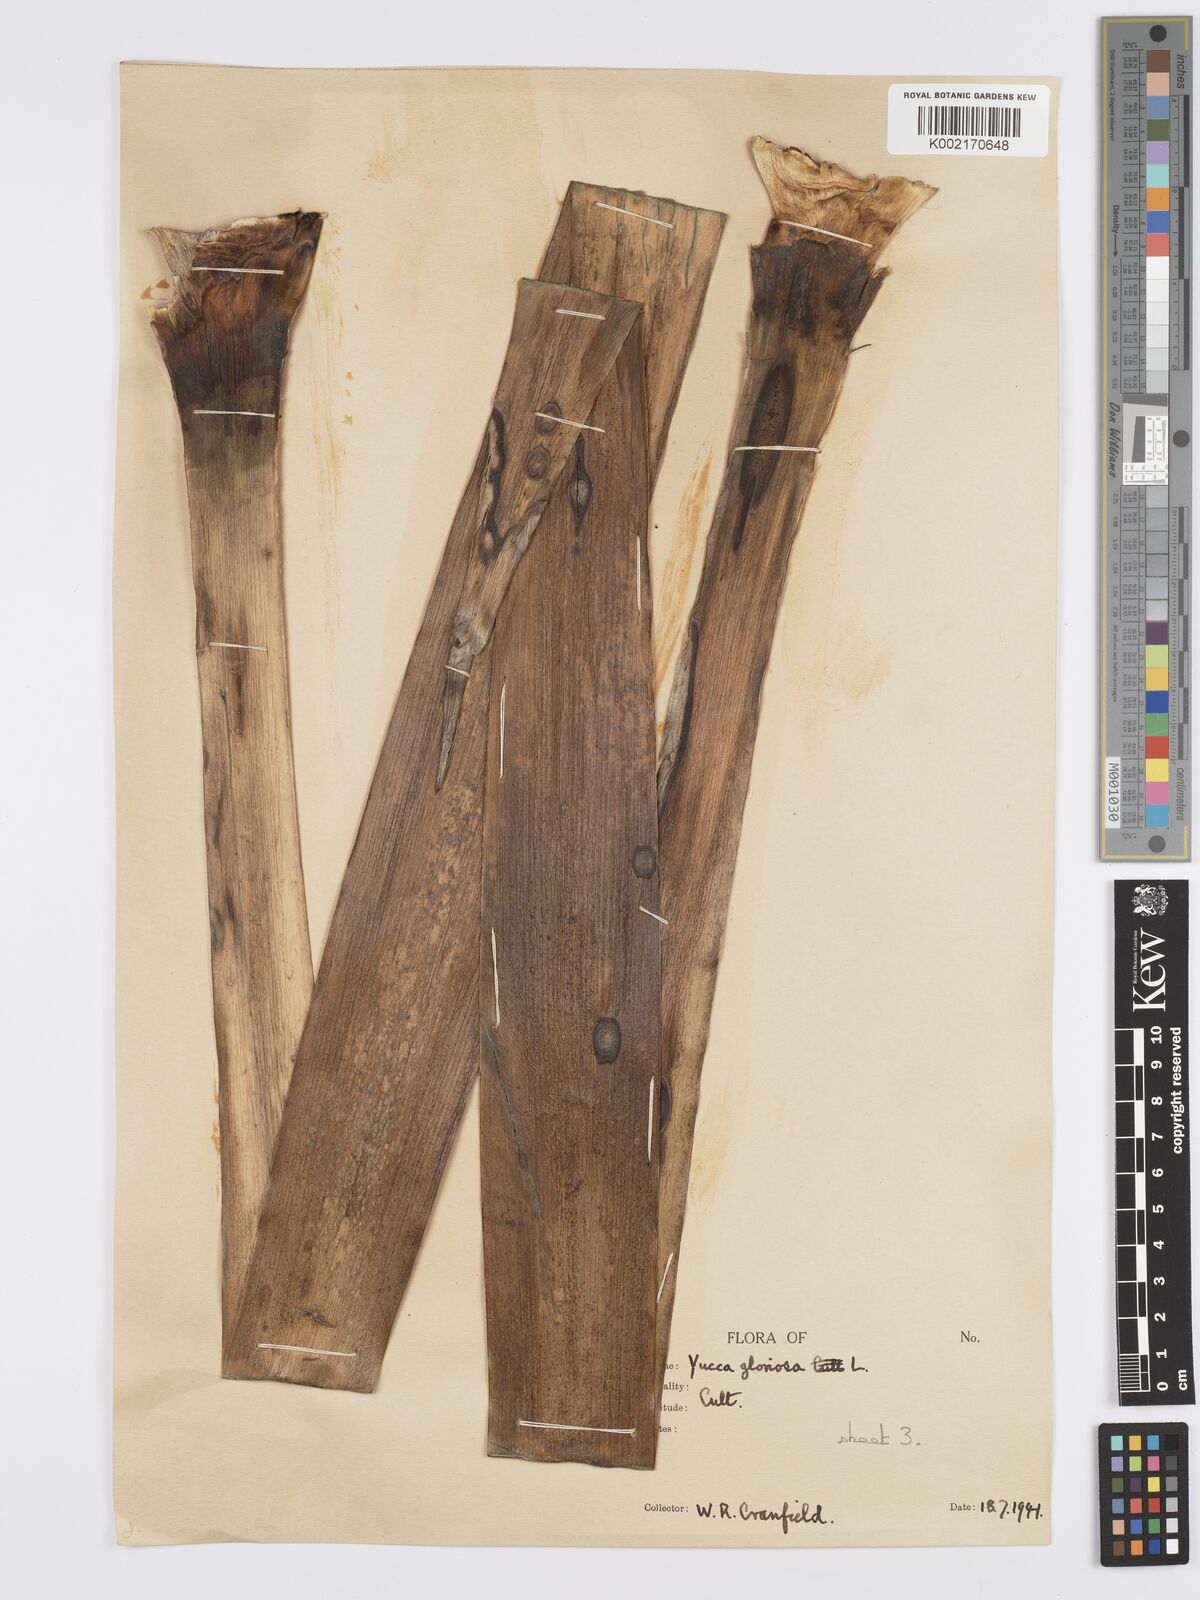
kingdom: Plantae
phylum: Tracheophyta
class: Liliopsida
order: Asparagales
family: Asparagaceae
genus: Yucca
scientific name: Yucca gloriosa
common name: Spanish-dagger
